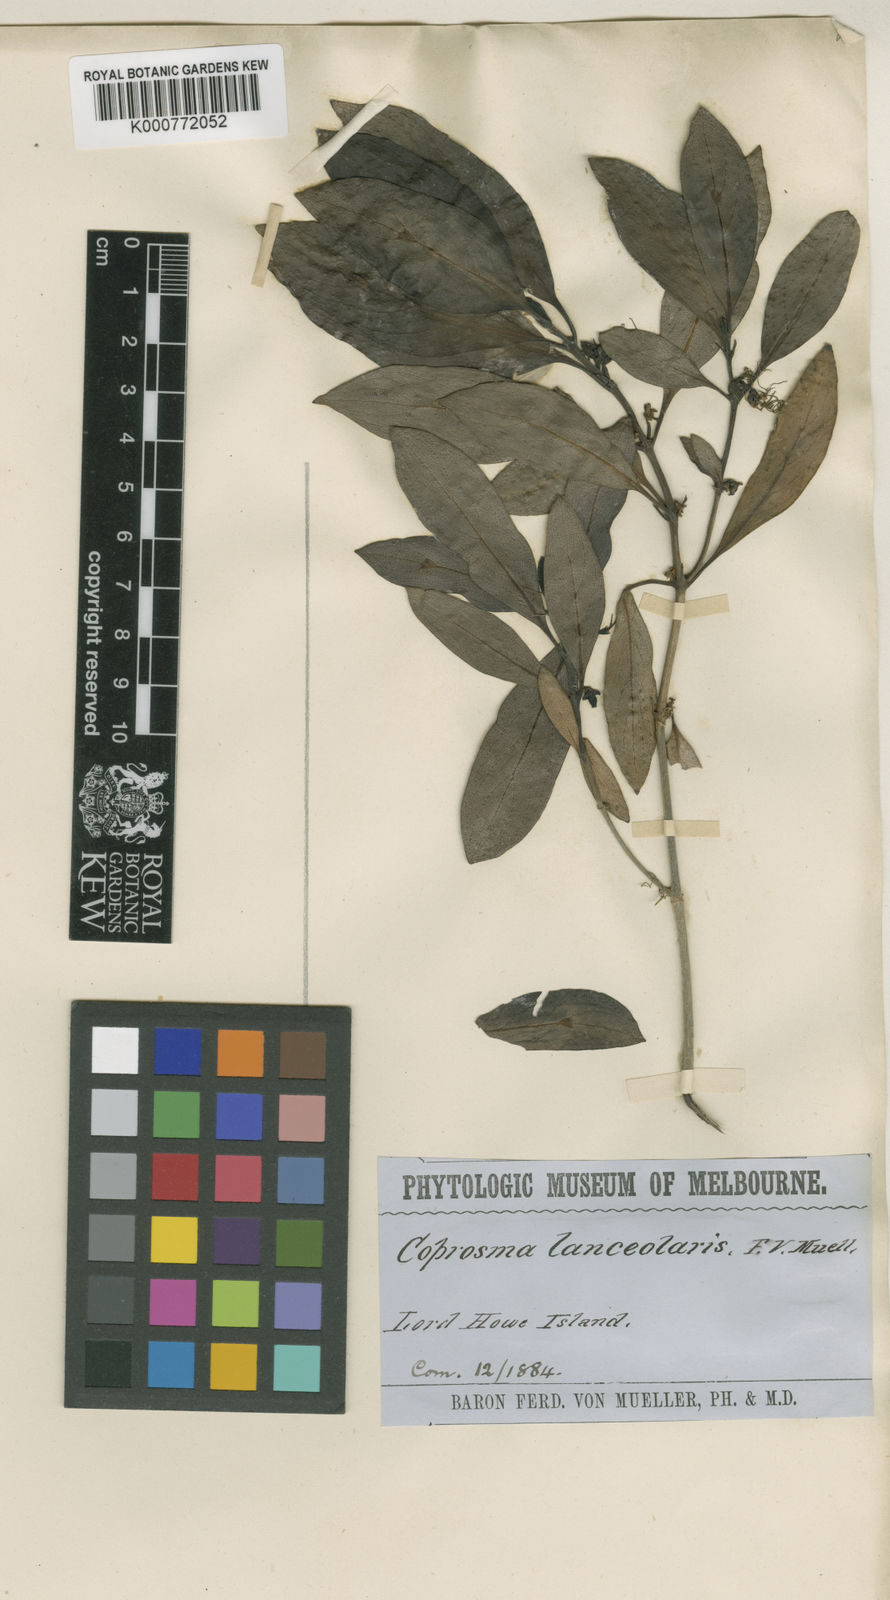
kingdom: Plantae
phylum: Tracheophyta
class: Magnoliopsida
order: Gentianales
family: Rubiaceae
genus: Coprosma
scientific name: Coprosma lanceolaris
